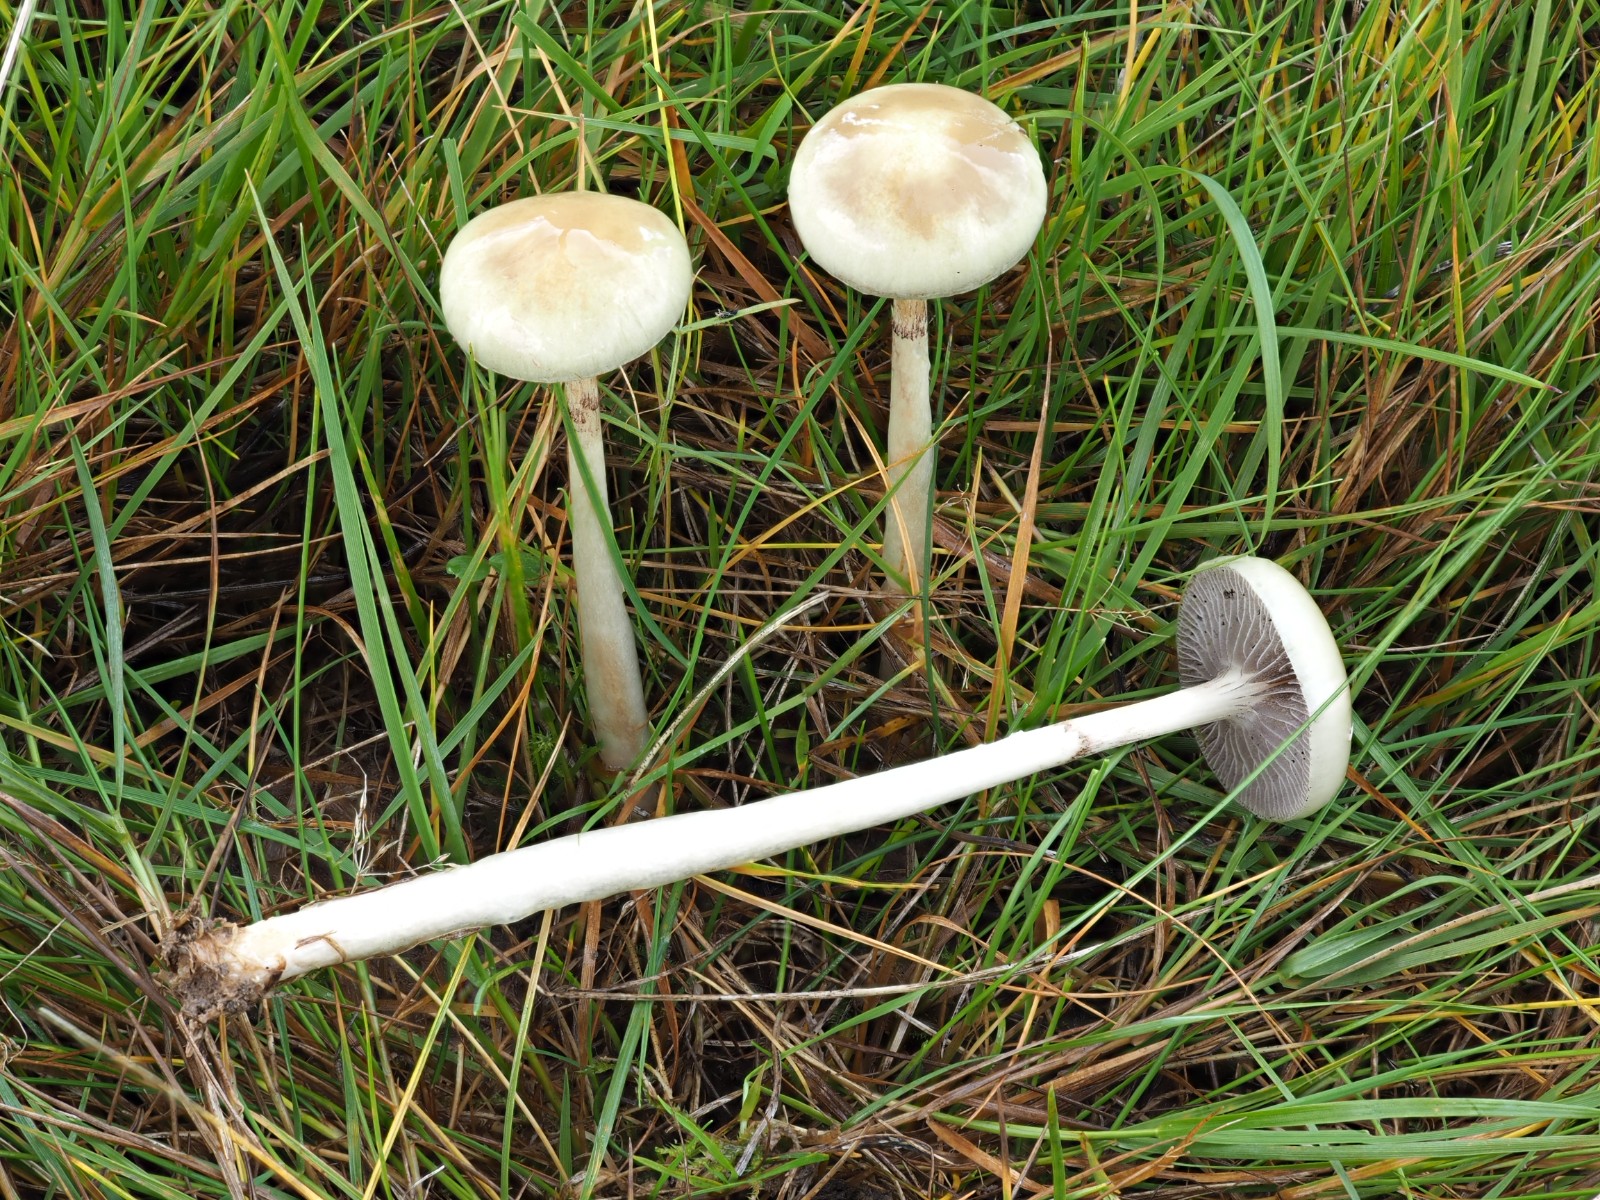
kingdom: Fungi
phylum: Basidiomycota
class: Agaricomycetes
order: Agaricales
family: Strophariaceae
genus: Protostropharia
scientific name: Protostropharia semiglobata
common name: halvkugleformet bredblad
